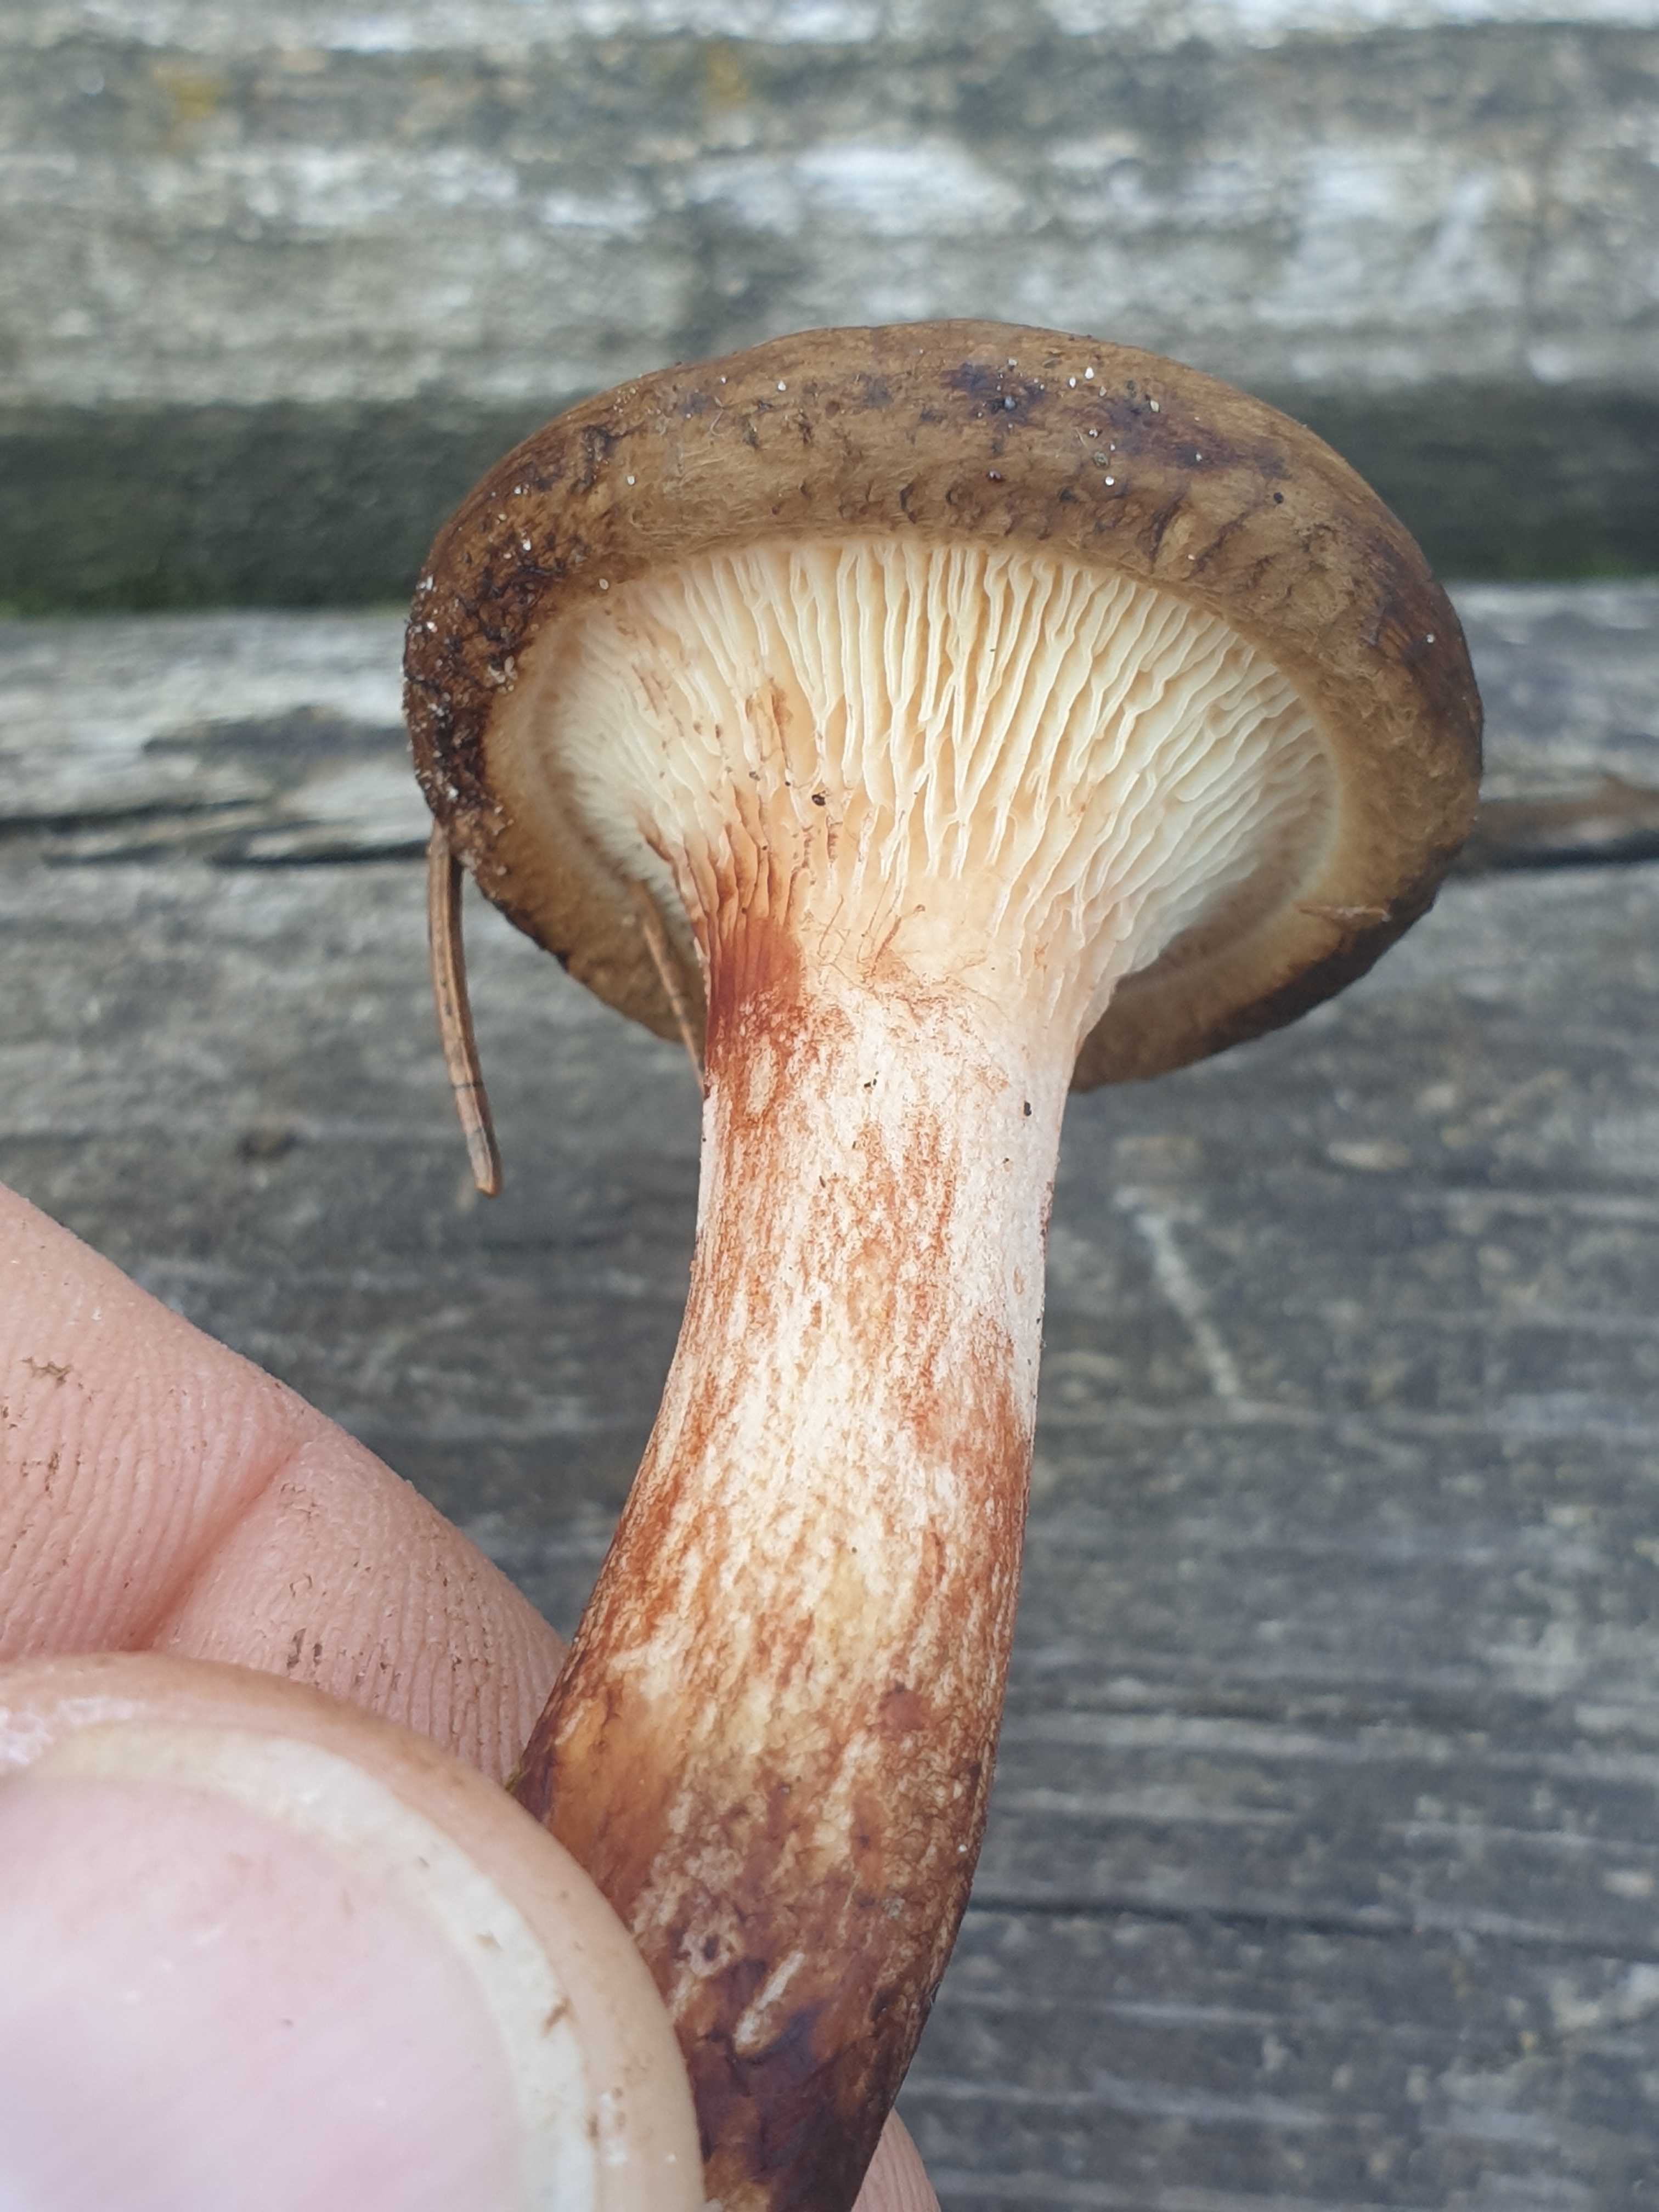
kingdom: Fungi
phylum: Basidiomycota
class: Agaricomycetes
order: Boletales
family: Paxillaceae
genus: Paxillus
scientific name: Paxillus involutus
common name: almindelig netbladhat
